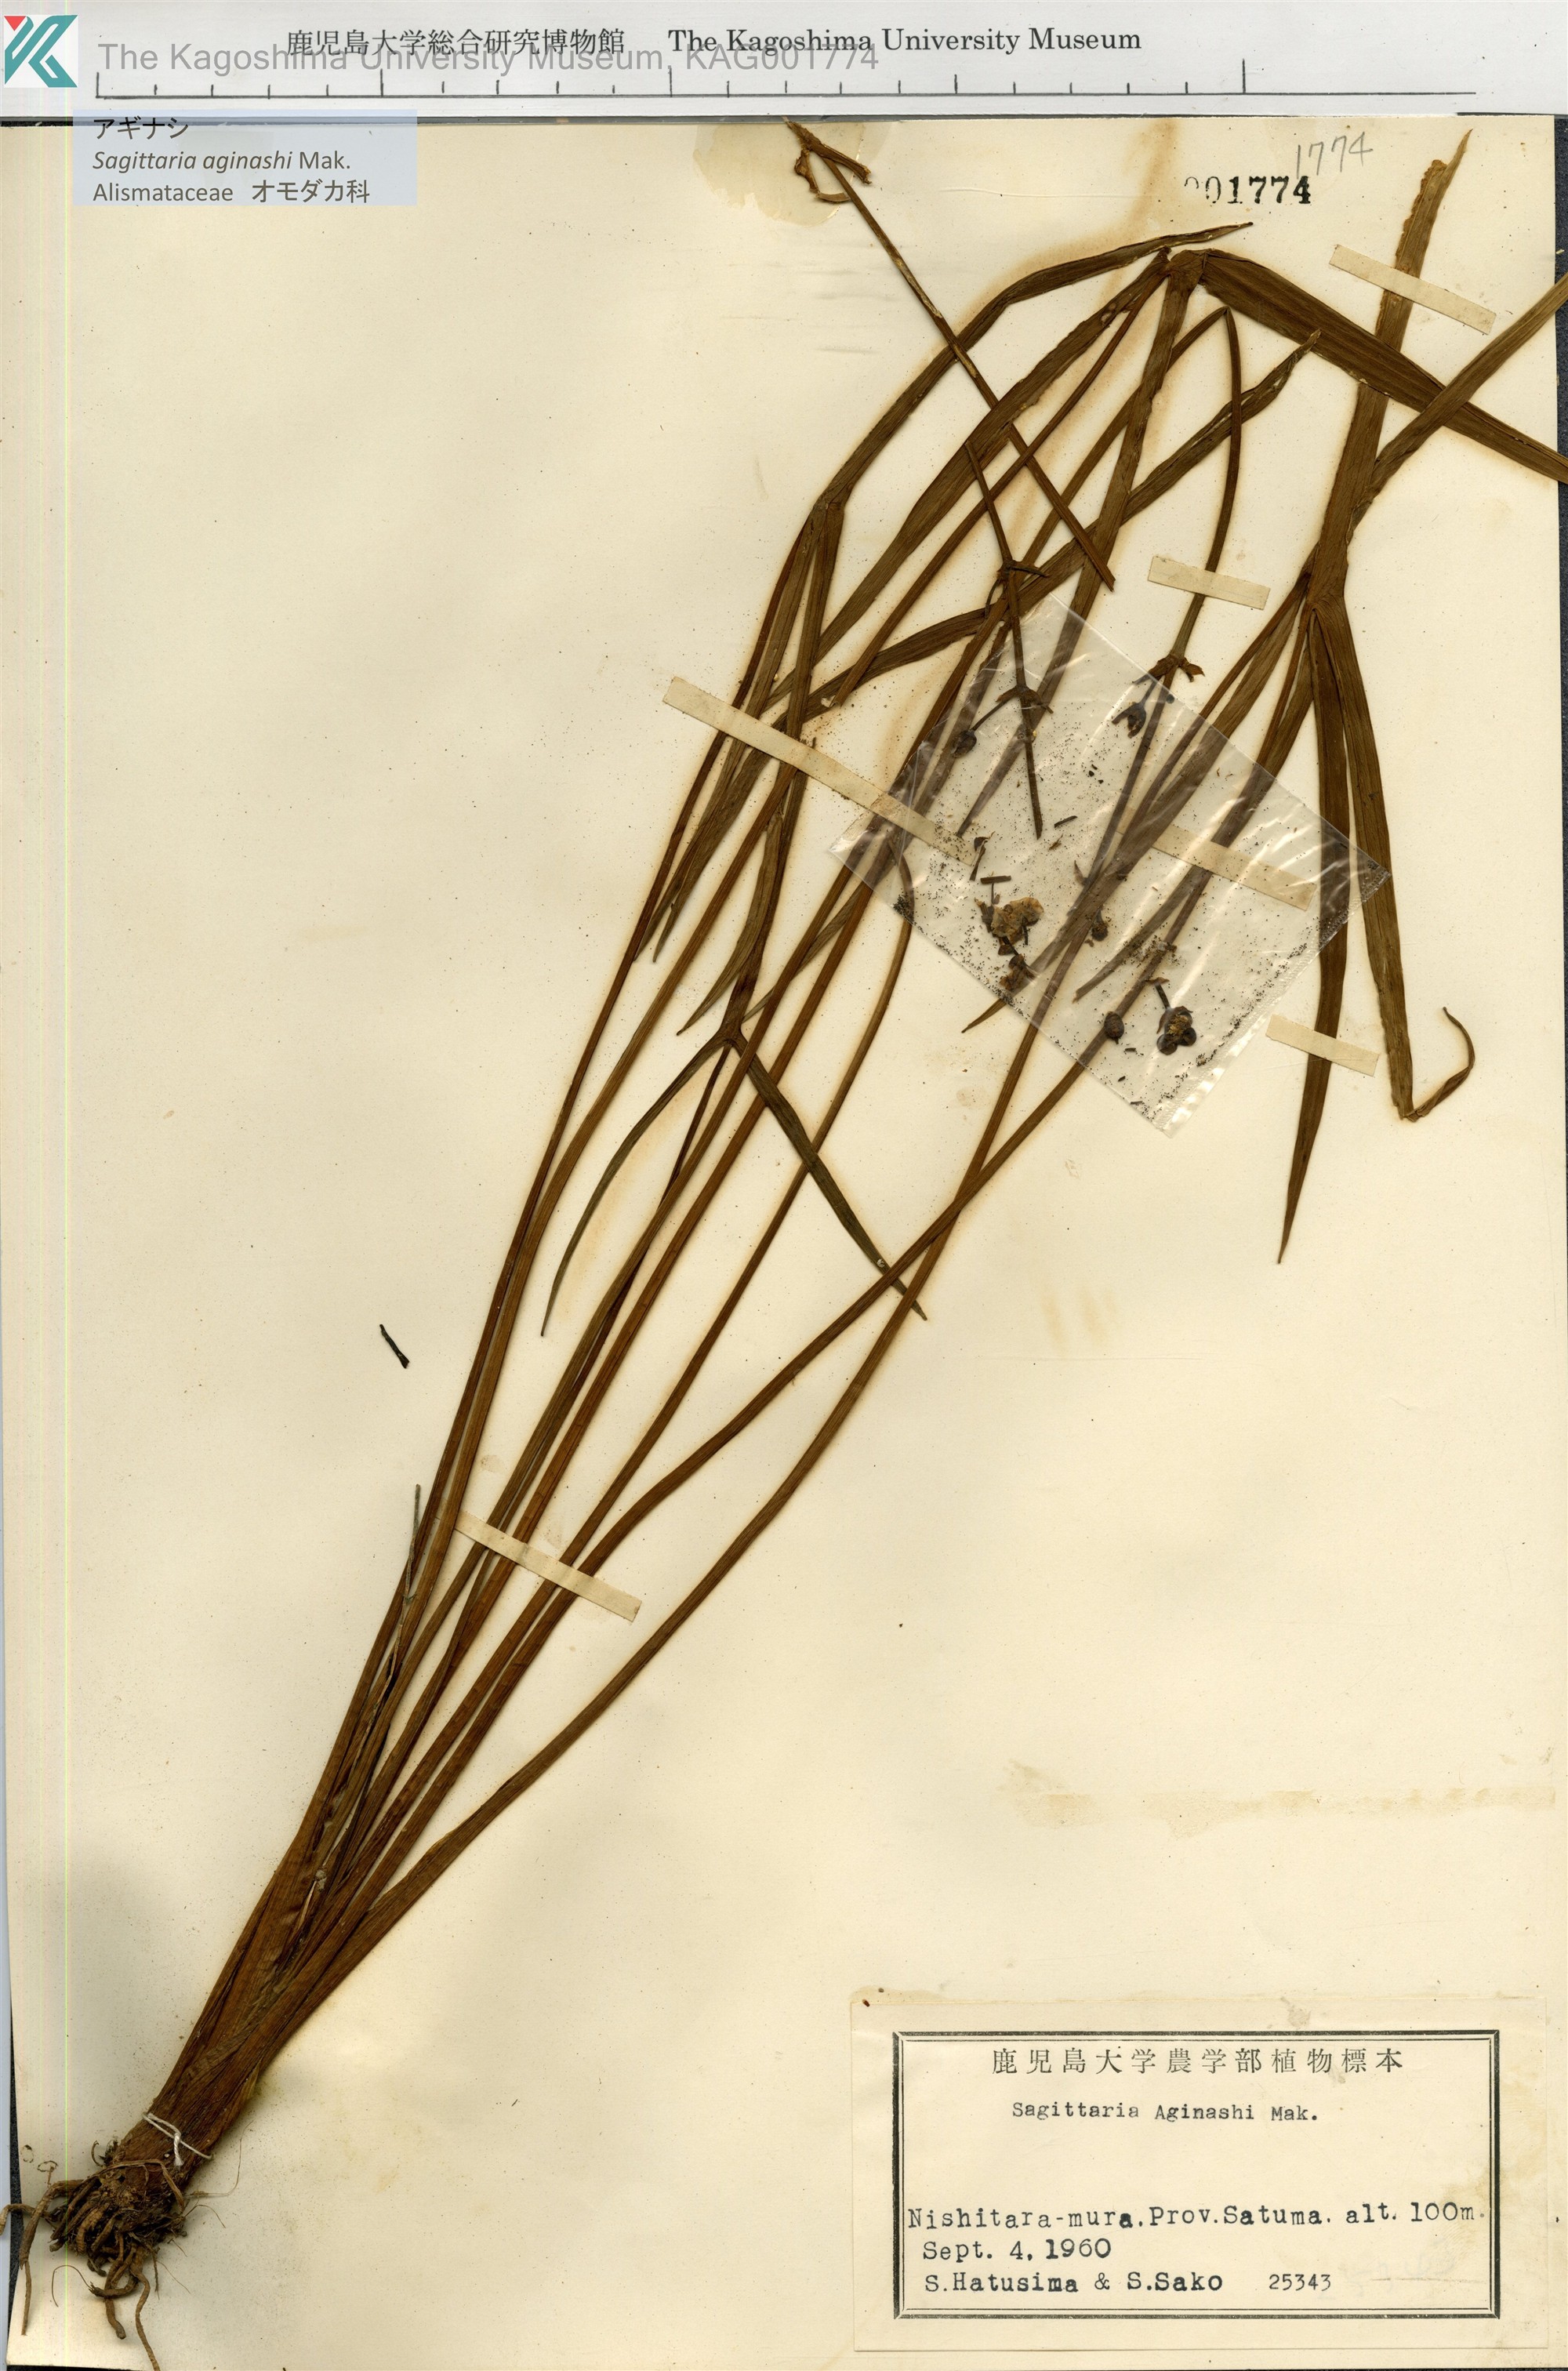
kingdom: Plantae
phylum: Tracheophyta
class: Liliopsida
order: Alismatales
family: Alismataceae
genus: Sagittaria
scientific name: Sagittaria aginashi
